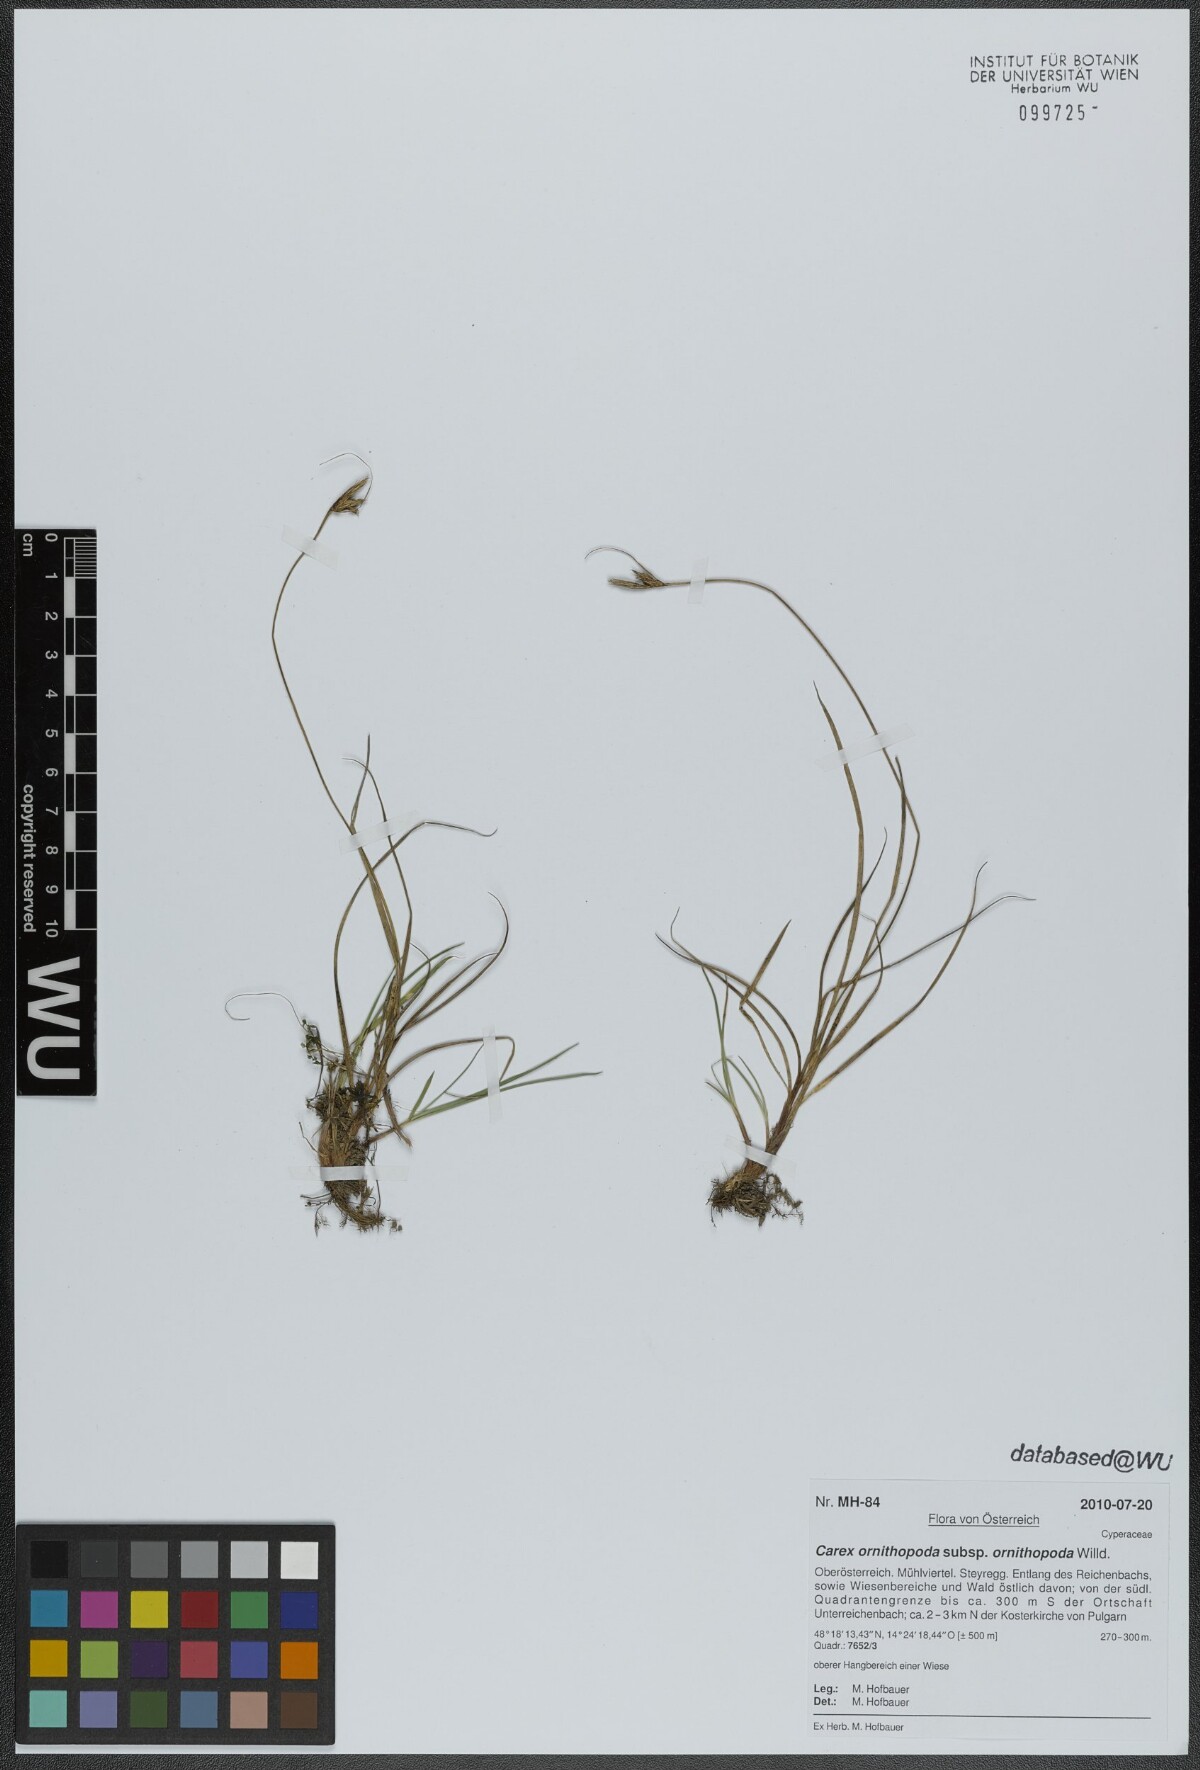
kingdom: Plantae
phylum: Tracheophyta
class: Liliopsida
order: Poales
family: Cyperaceae
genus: Carex
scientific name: Carex ornithopoda
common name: Bird's-foot sedge
